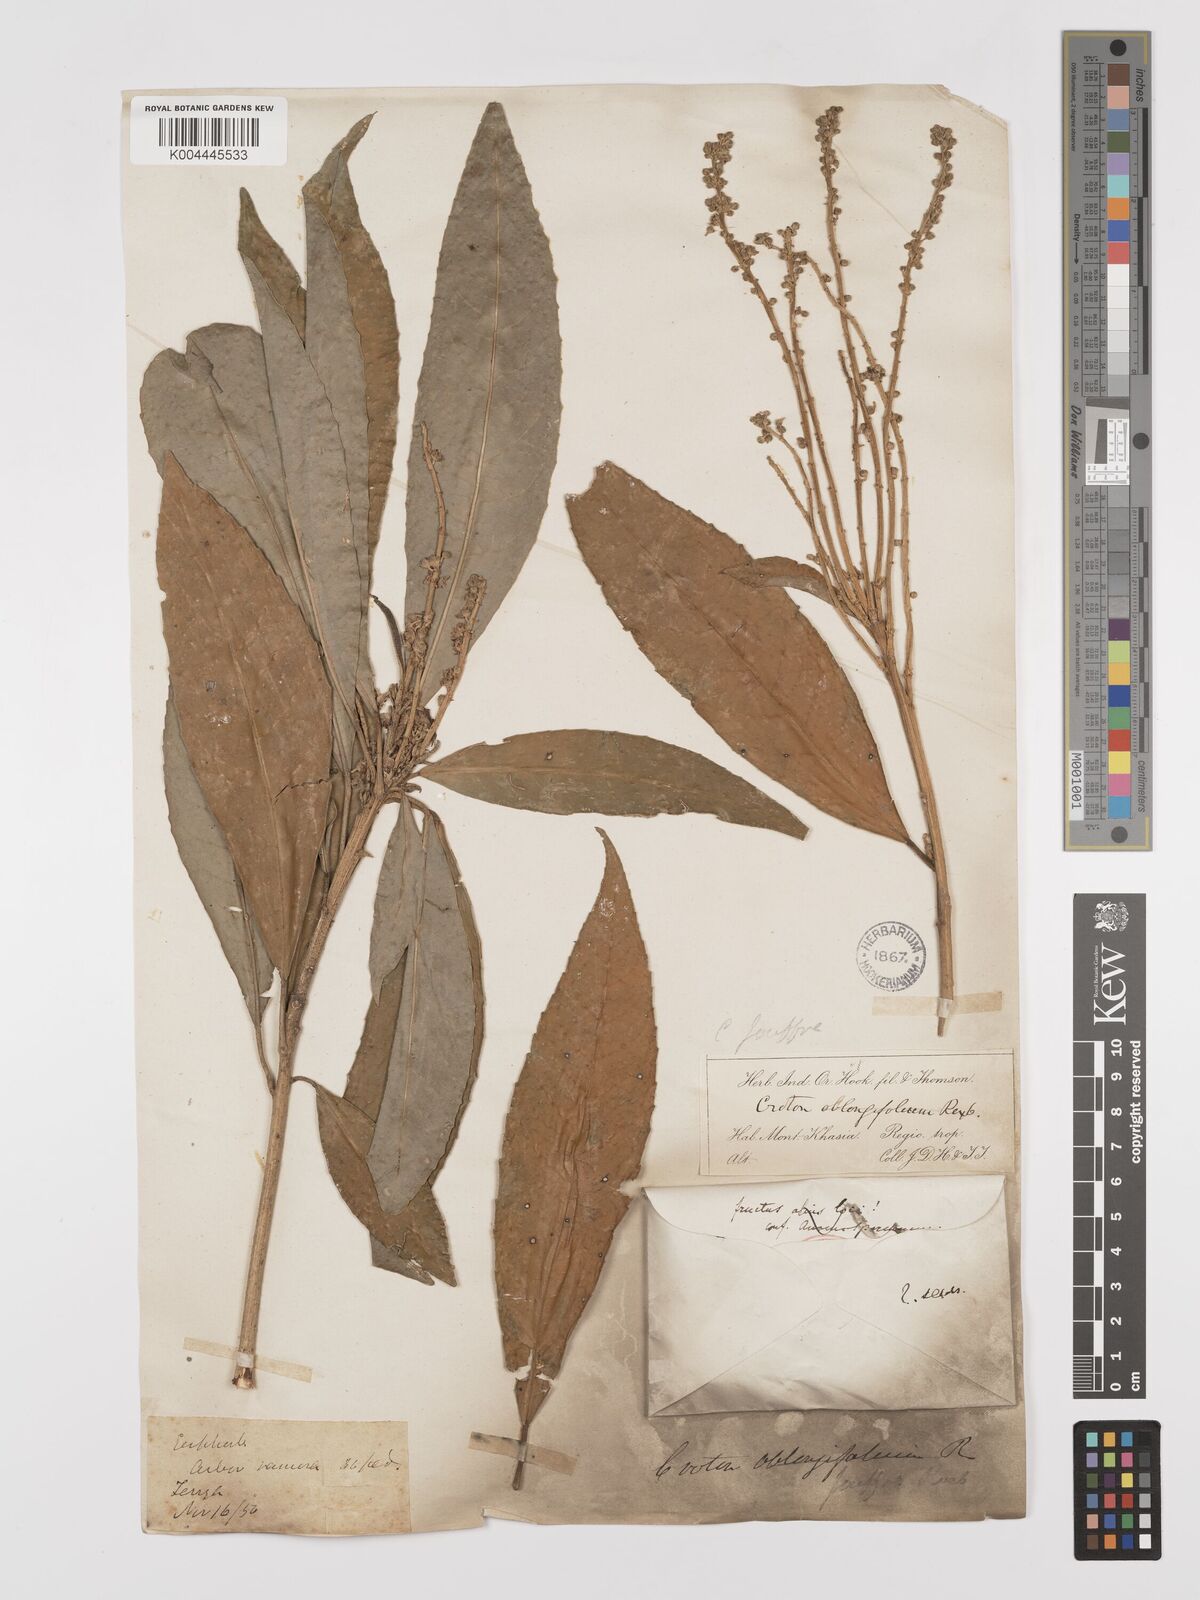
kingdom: Plantae
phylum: Tracheophyta
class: Magnoliopsida
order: Malpighiales
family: Euphorbiaceae
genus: Croton
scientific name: Croton joufra
